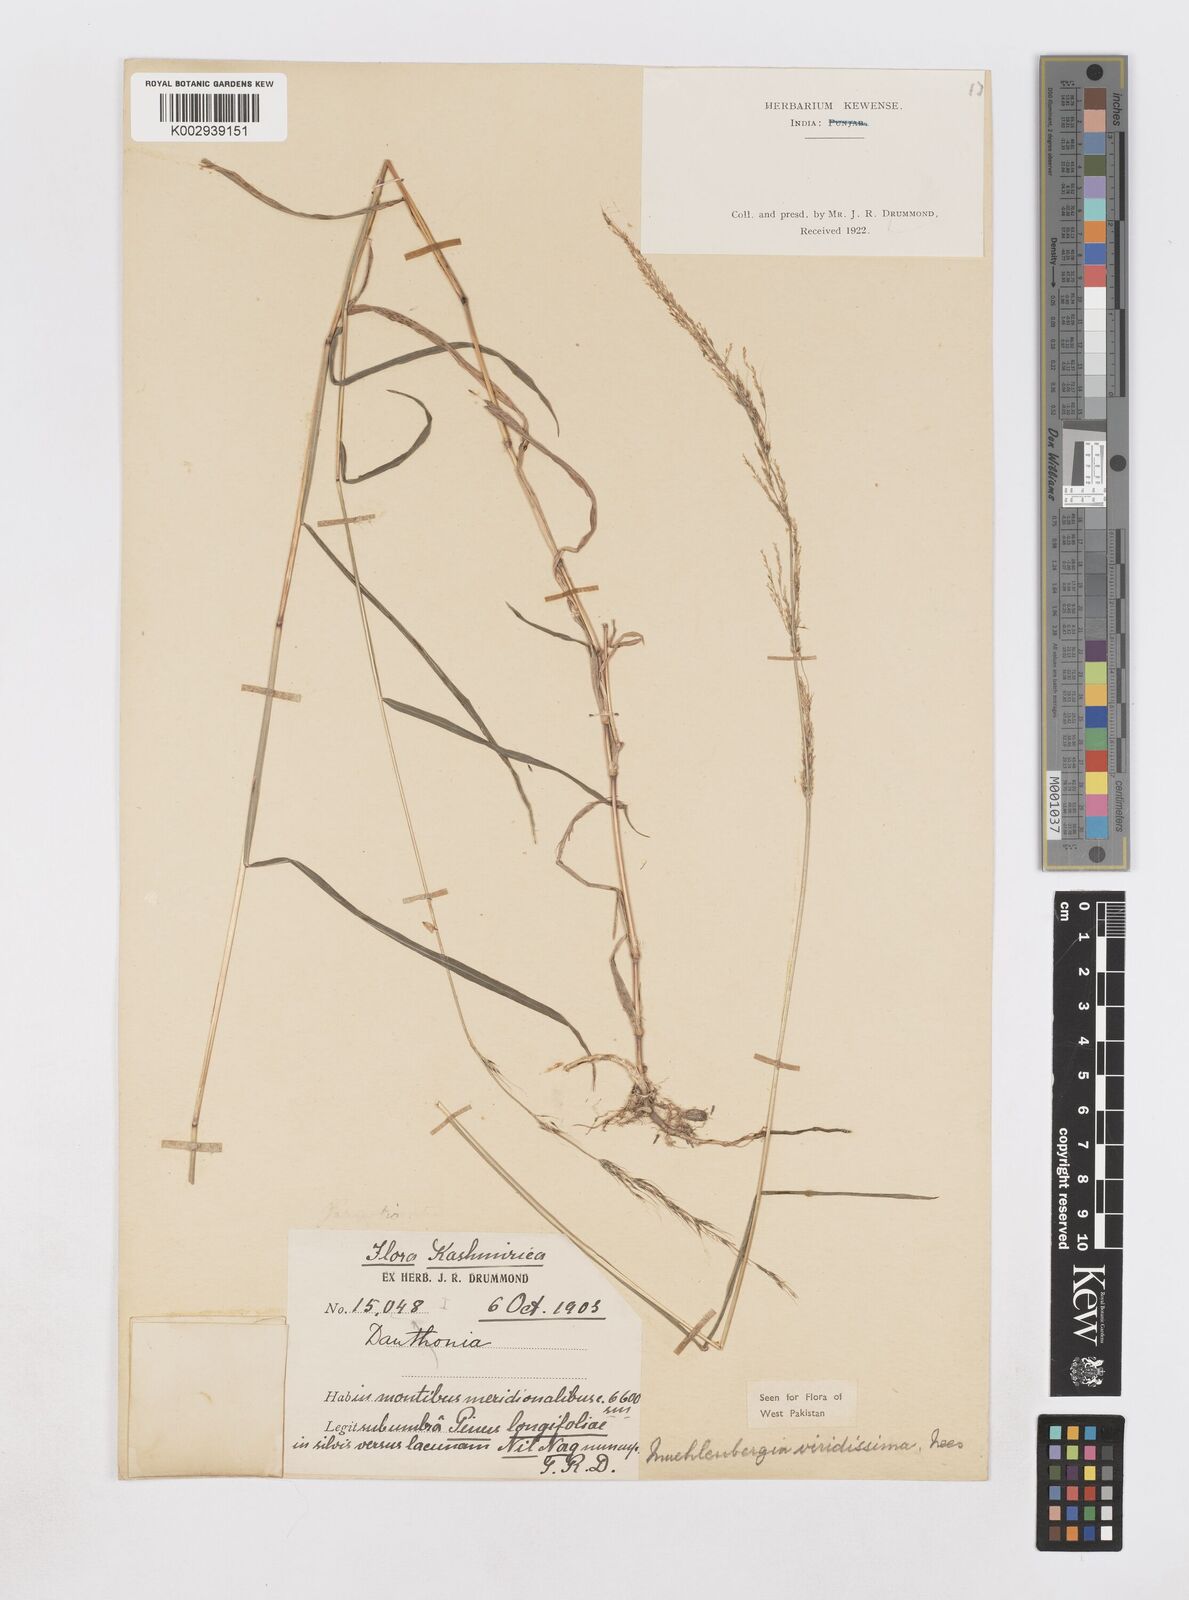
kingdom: Plantae
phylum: Tracheophyta
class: Liliopsida
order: Poales
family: Poaceae
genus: Muhlenbergia
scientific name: Muhlenbergia huegelii
